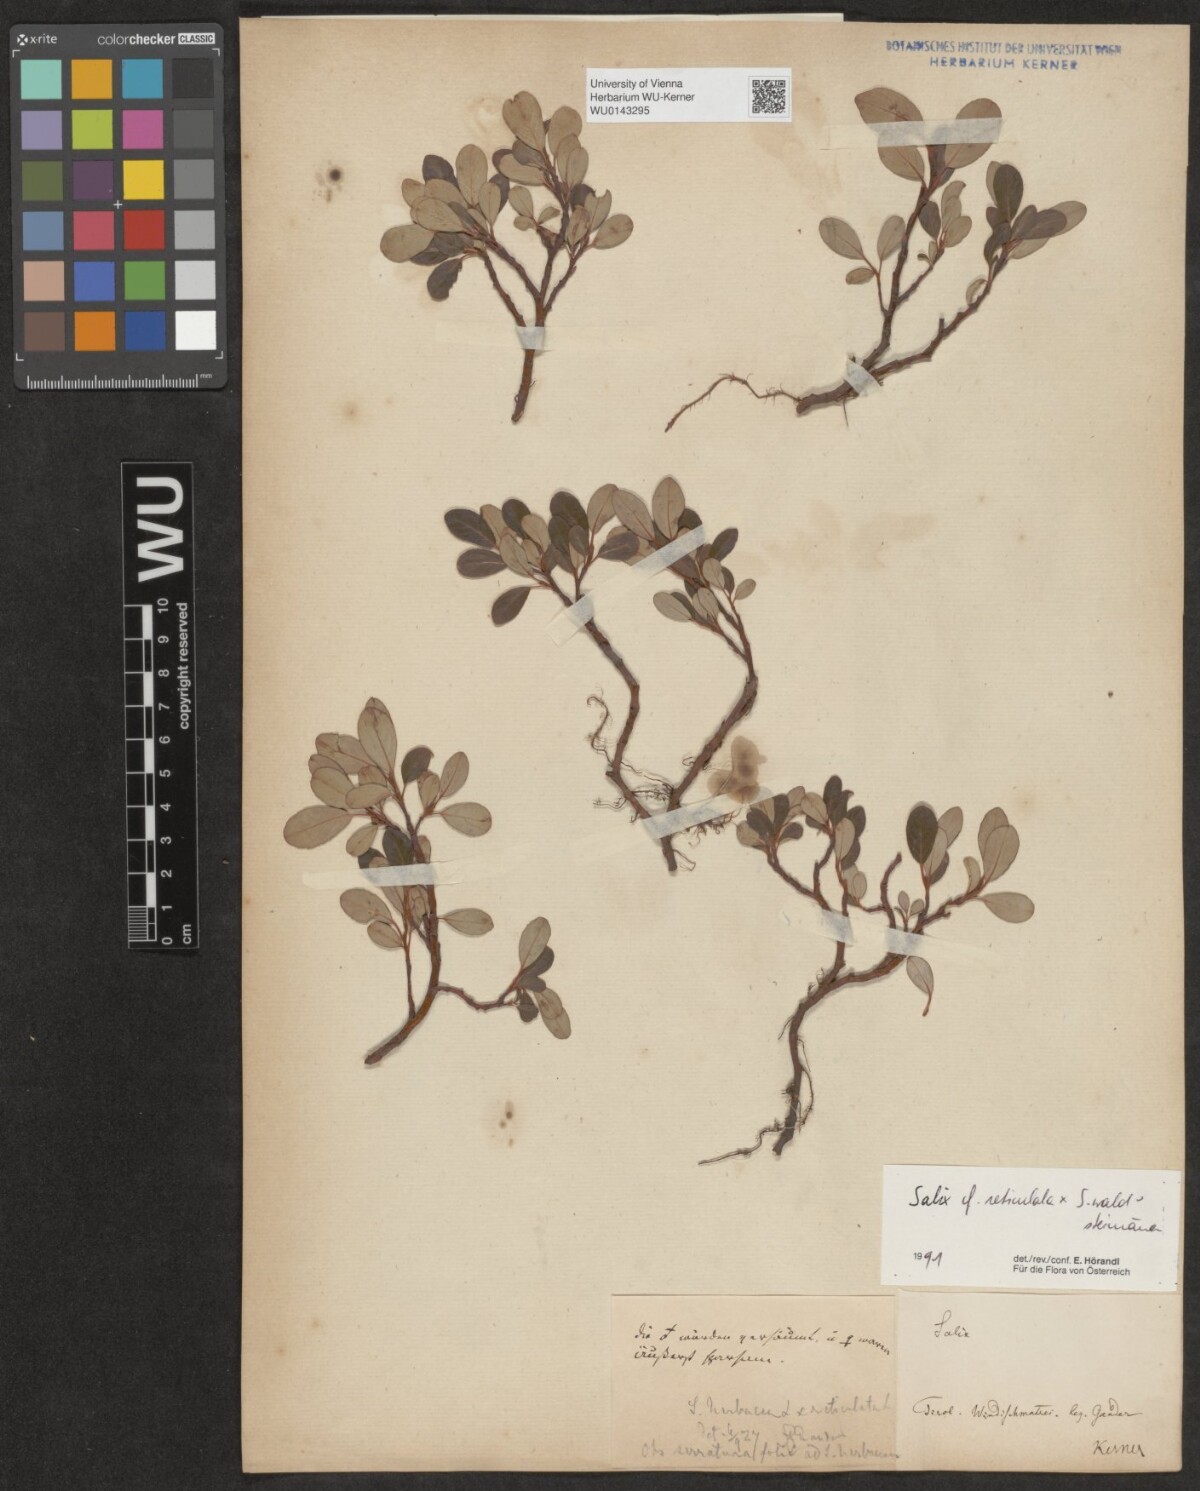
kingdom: Plantae
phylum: Tracheophyta
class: Magnoliopsida
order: Malpighiales
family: Salicaceae
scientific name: Salicaceae
